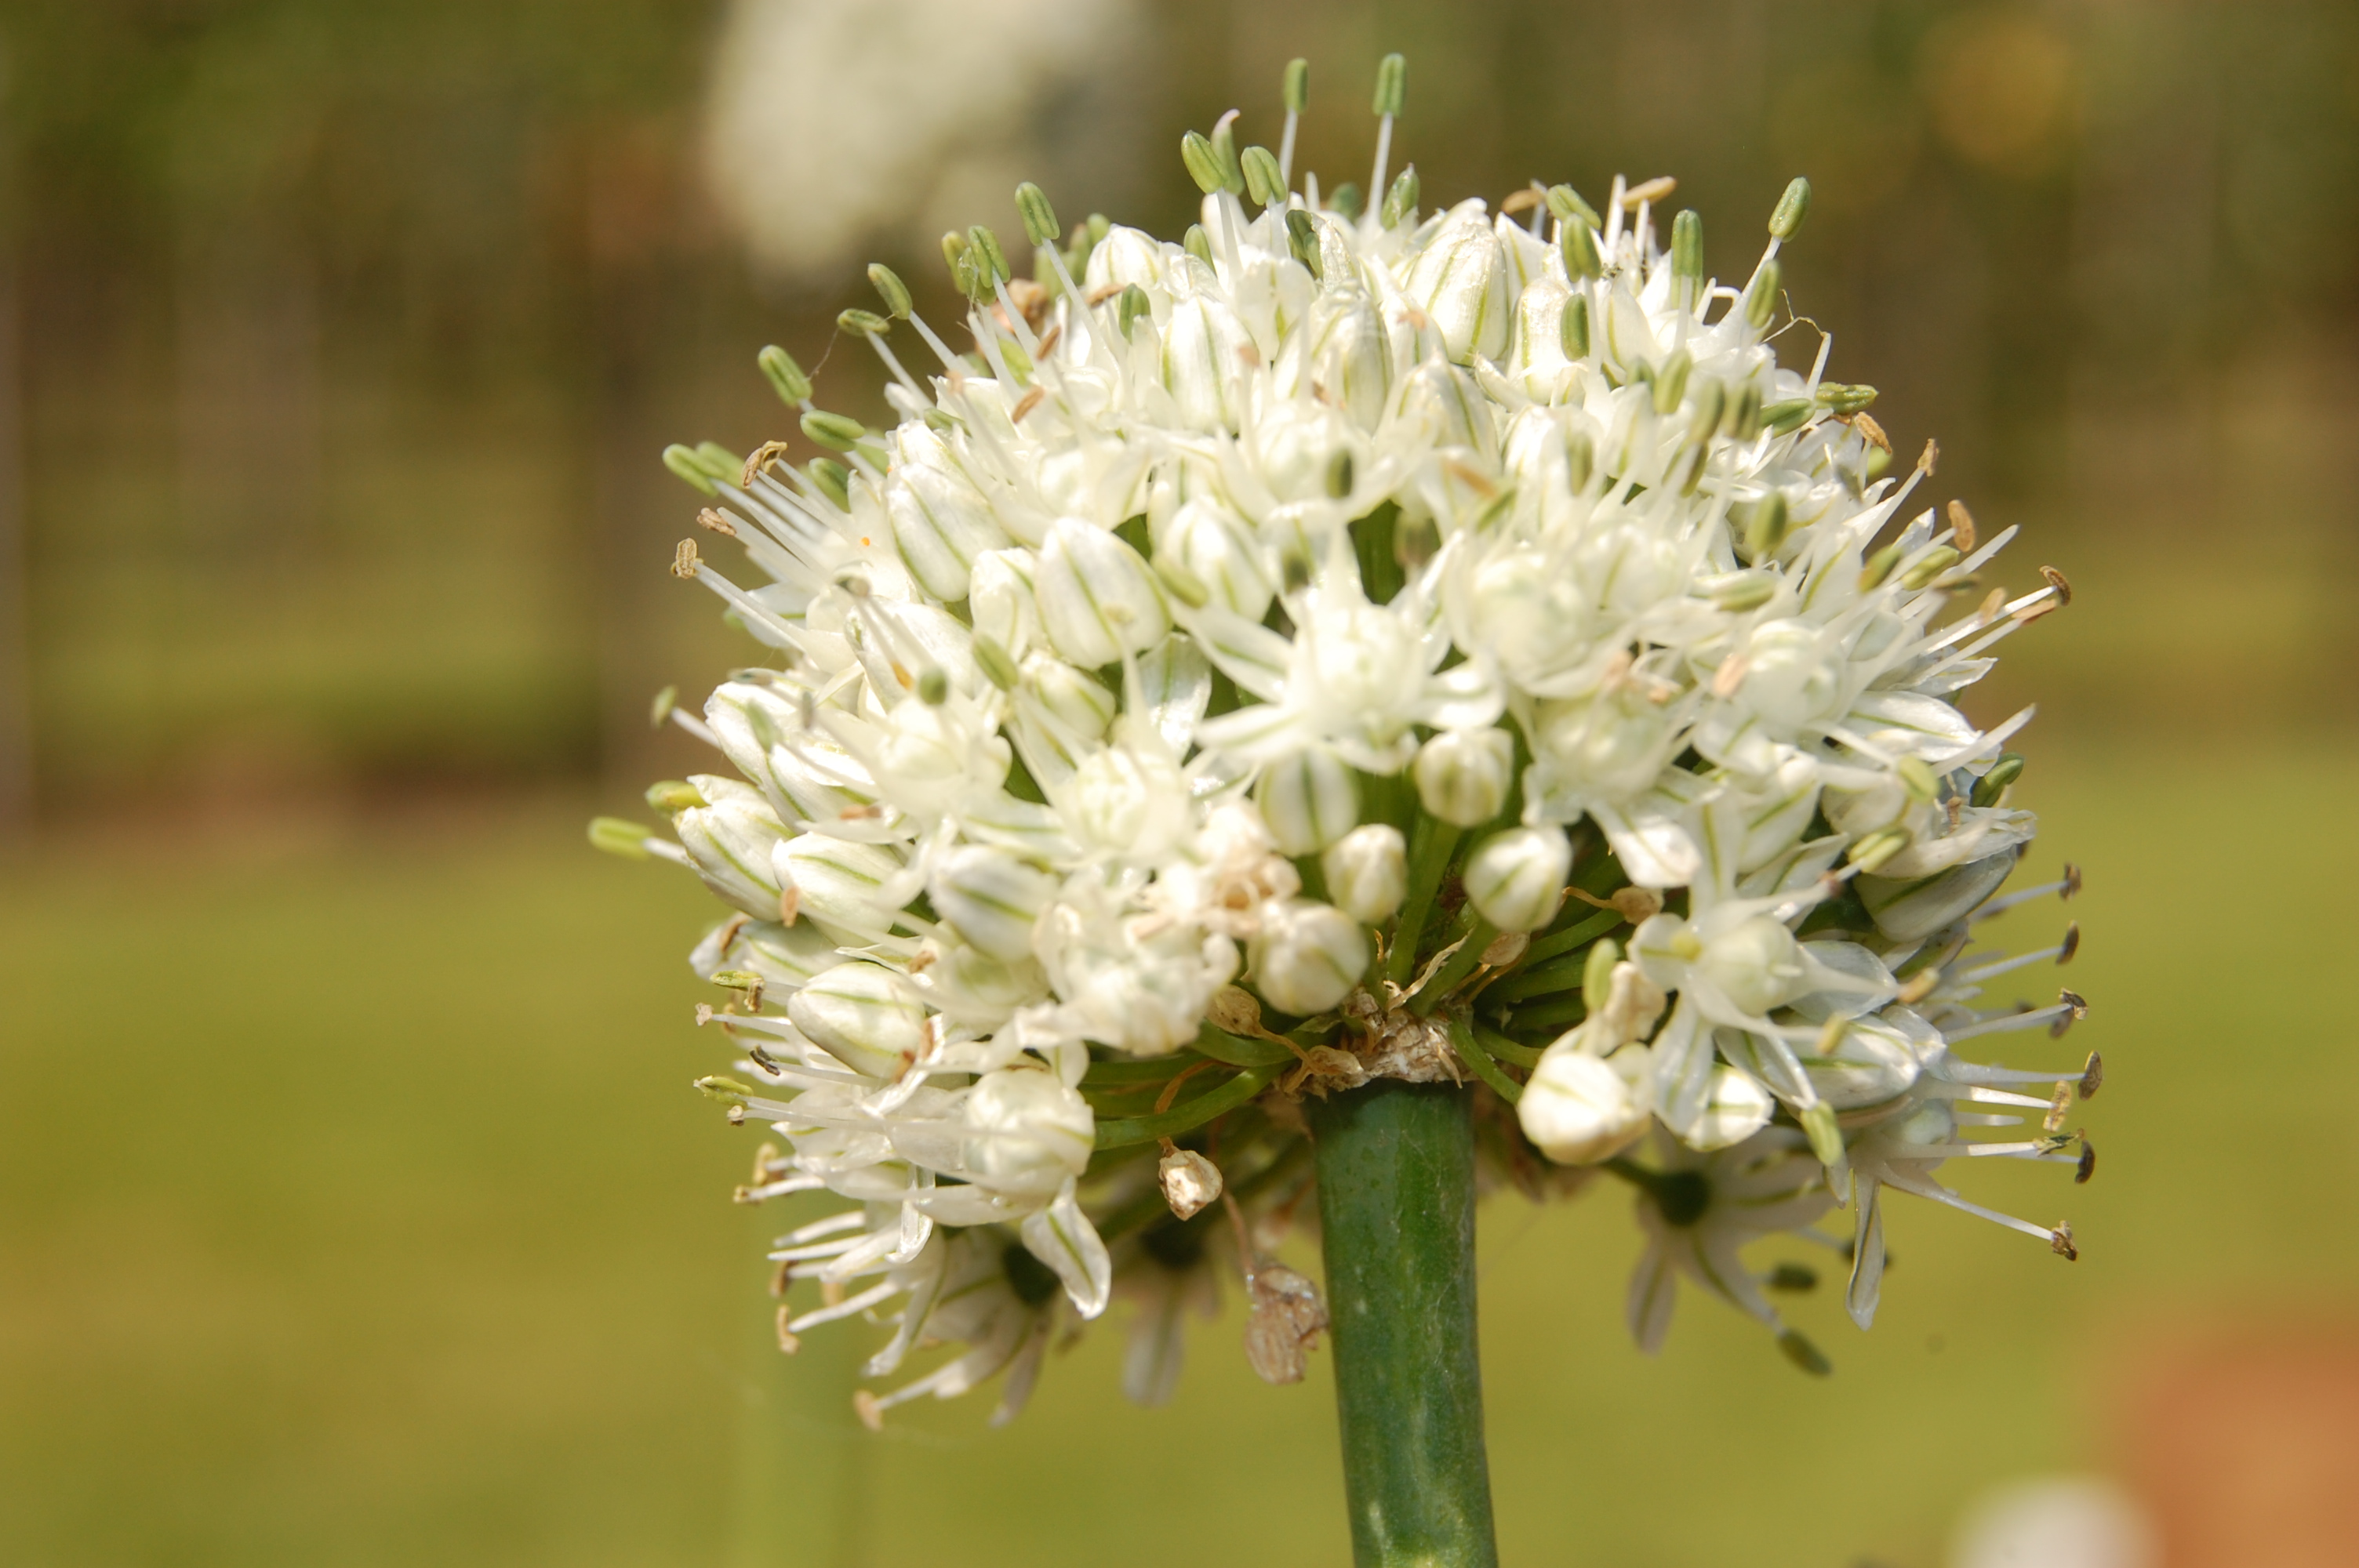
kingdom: Plantae
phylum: Tracheophyta
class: Liliopsida
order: Asparagales
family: Amaryllidaceae
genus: Allium
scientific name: Allium cepa
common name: Onion
